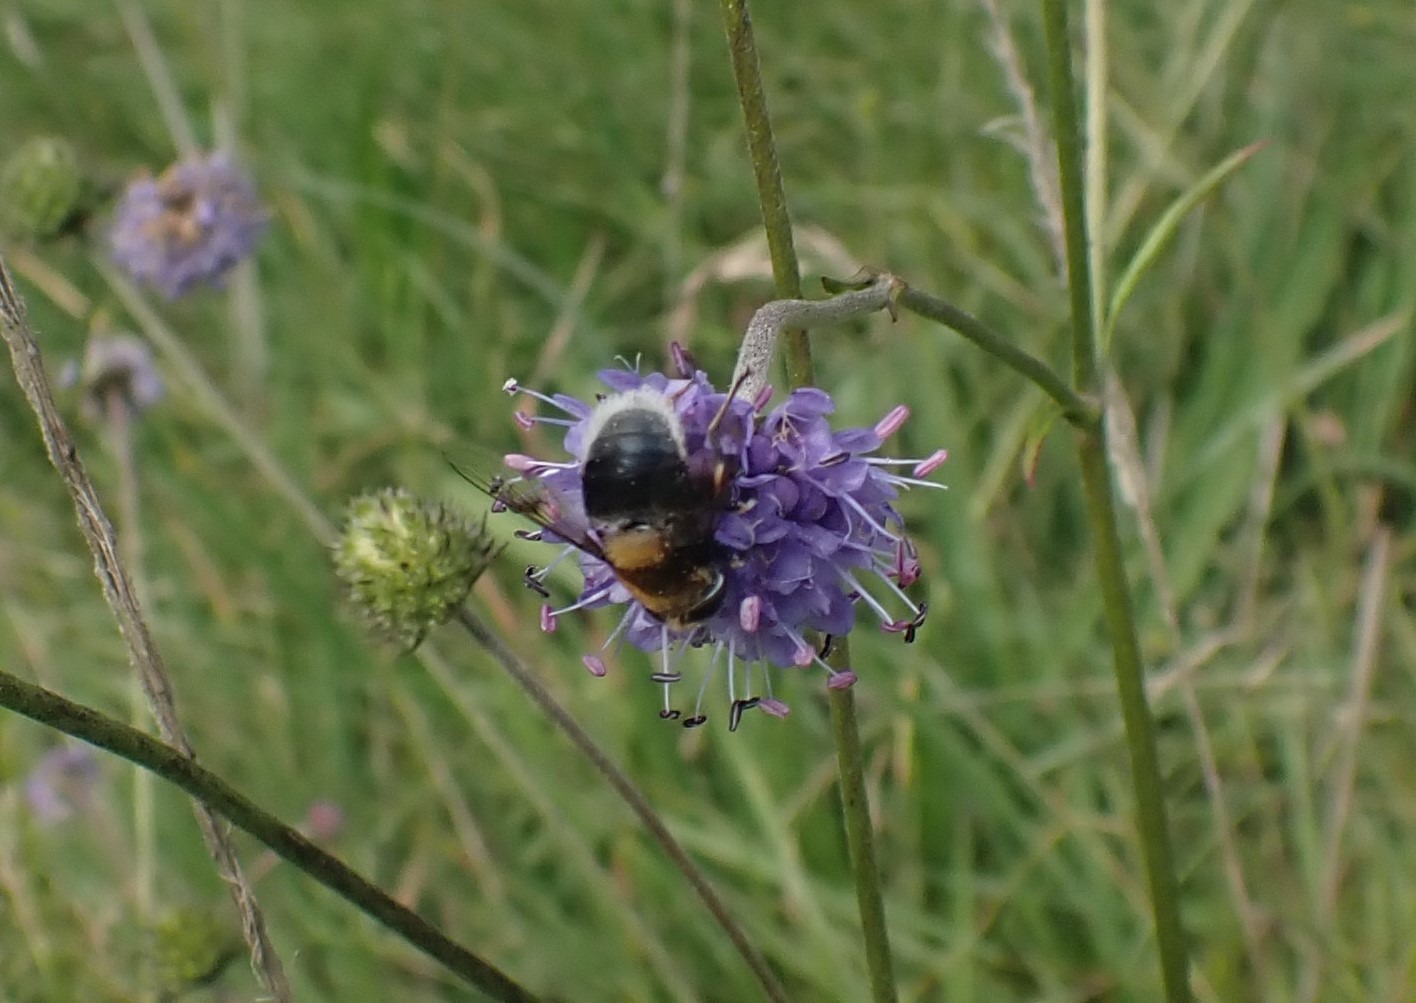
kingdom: Animalia
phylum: Arthropoda
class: Insecta
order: Diptera
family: Syrphidae
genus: Eristalis
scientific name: Eristalis intricaria
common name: Håret dyndflue
